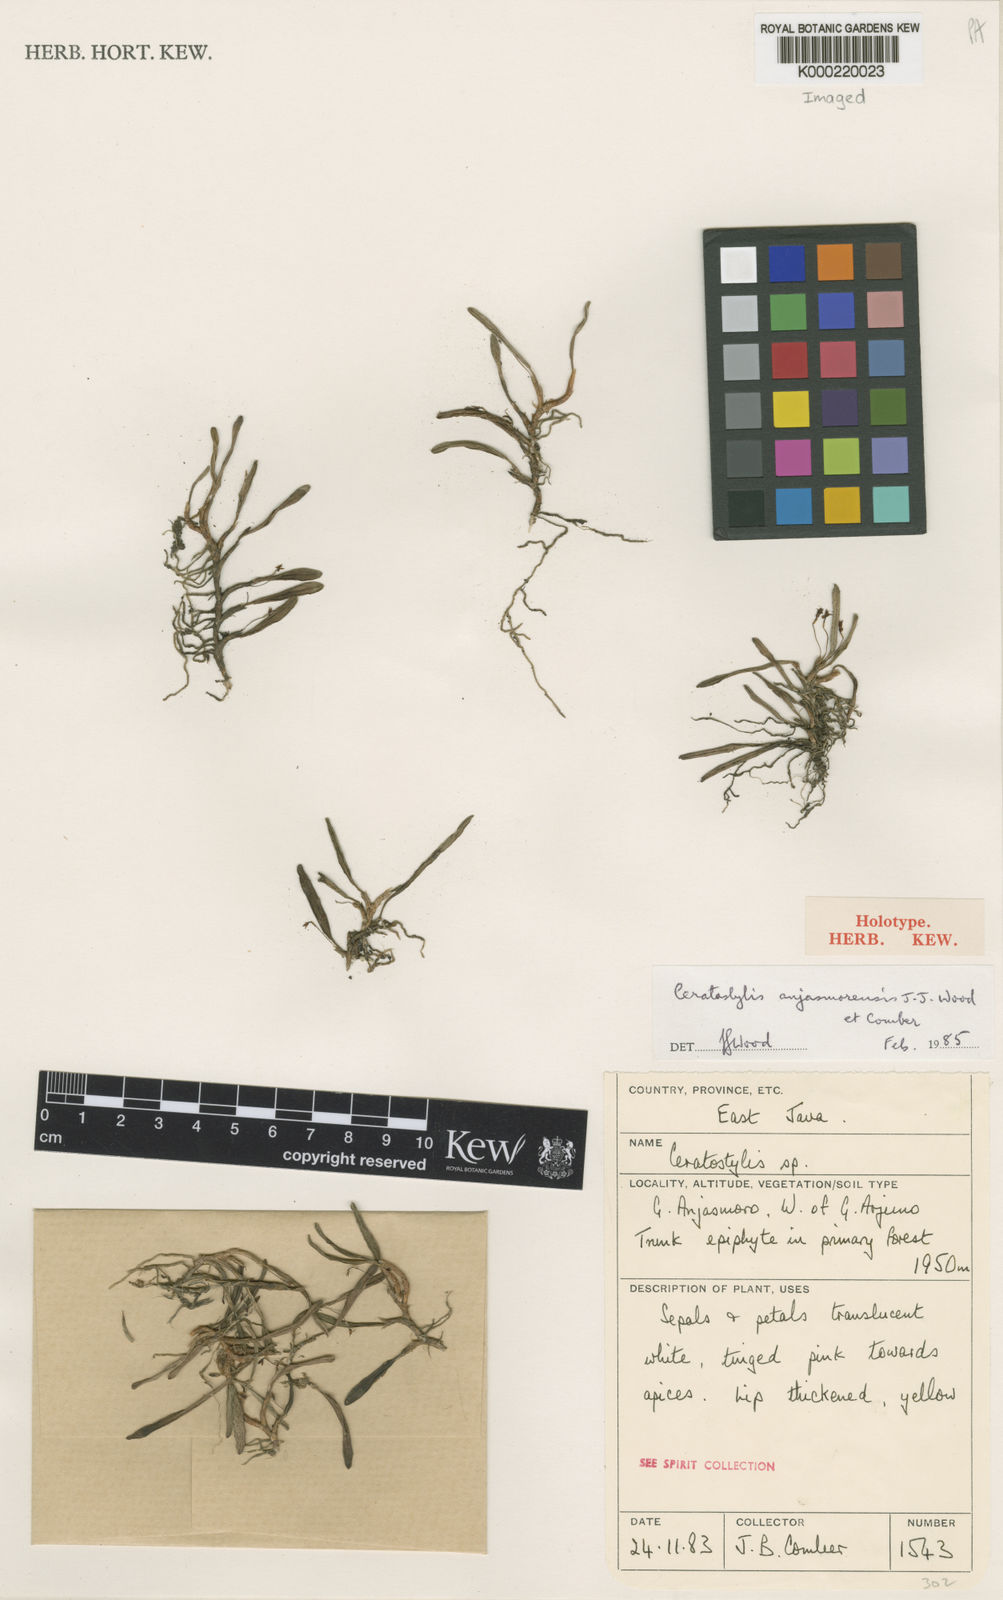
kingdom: Plantae
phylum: Tracheophyta
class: Liliopsida
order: Asparagales
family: Orchidaceae
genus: Ceratostylis
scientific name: Ceratostylis anjasmorensis
